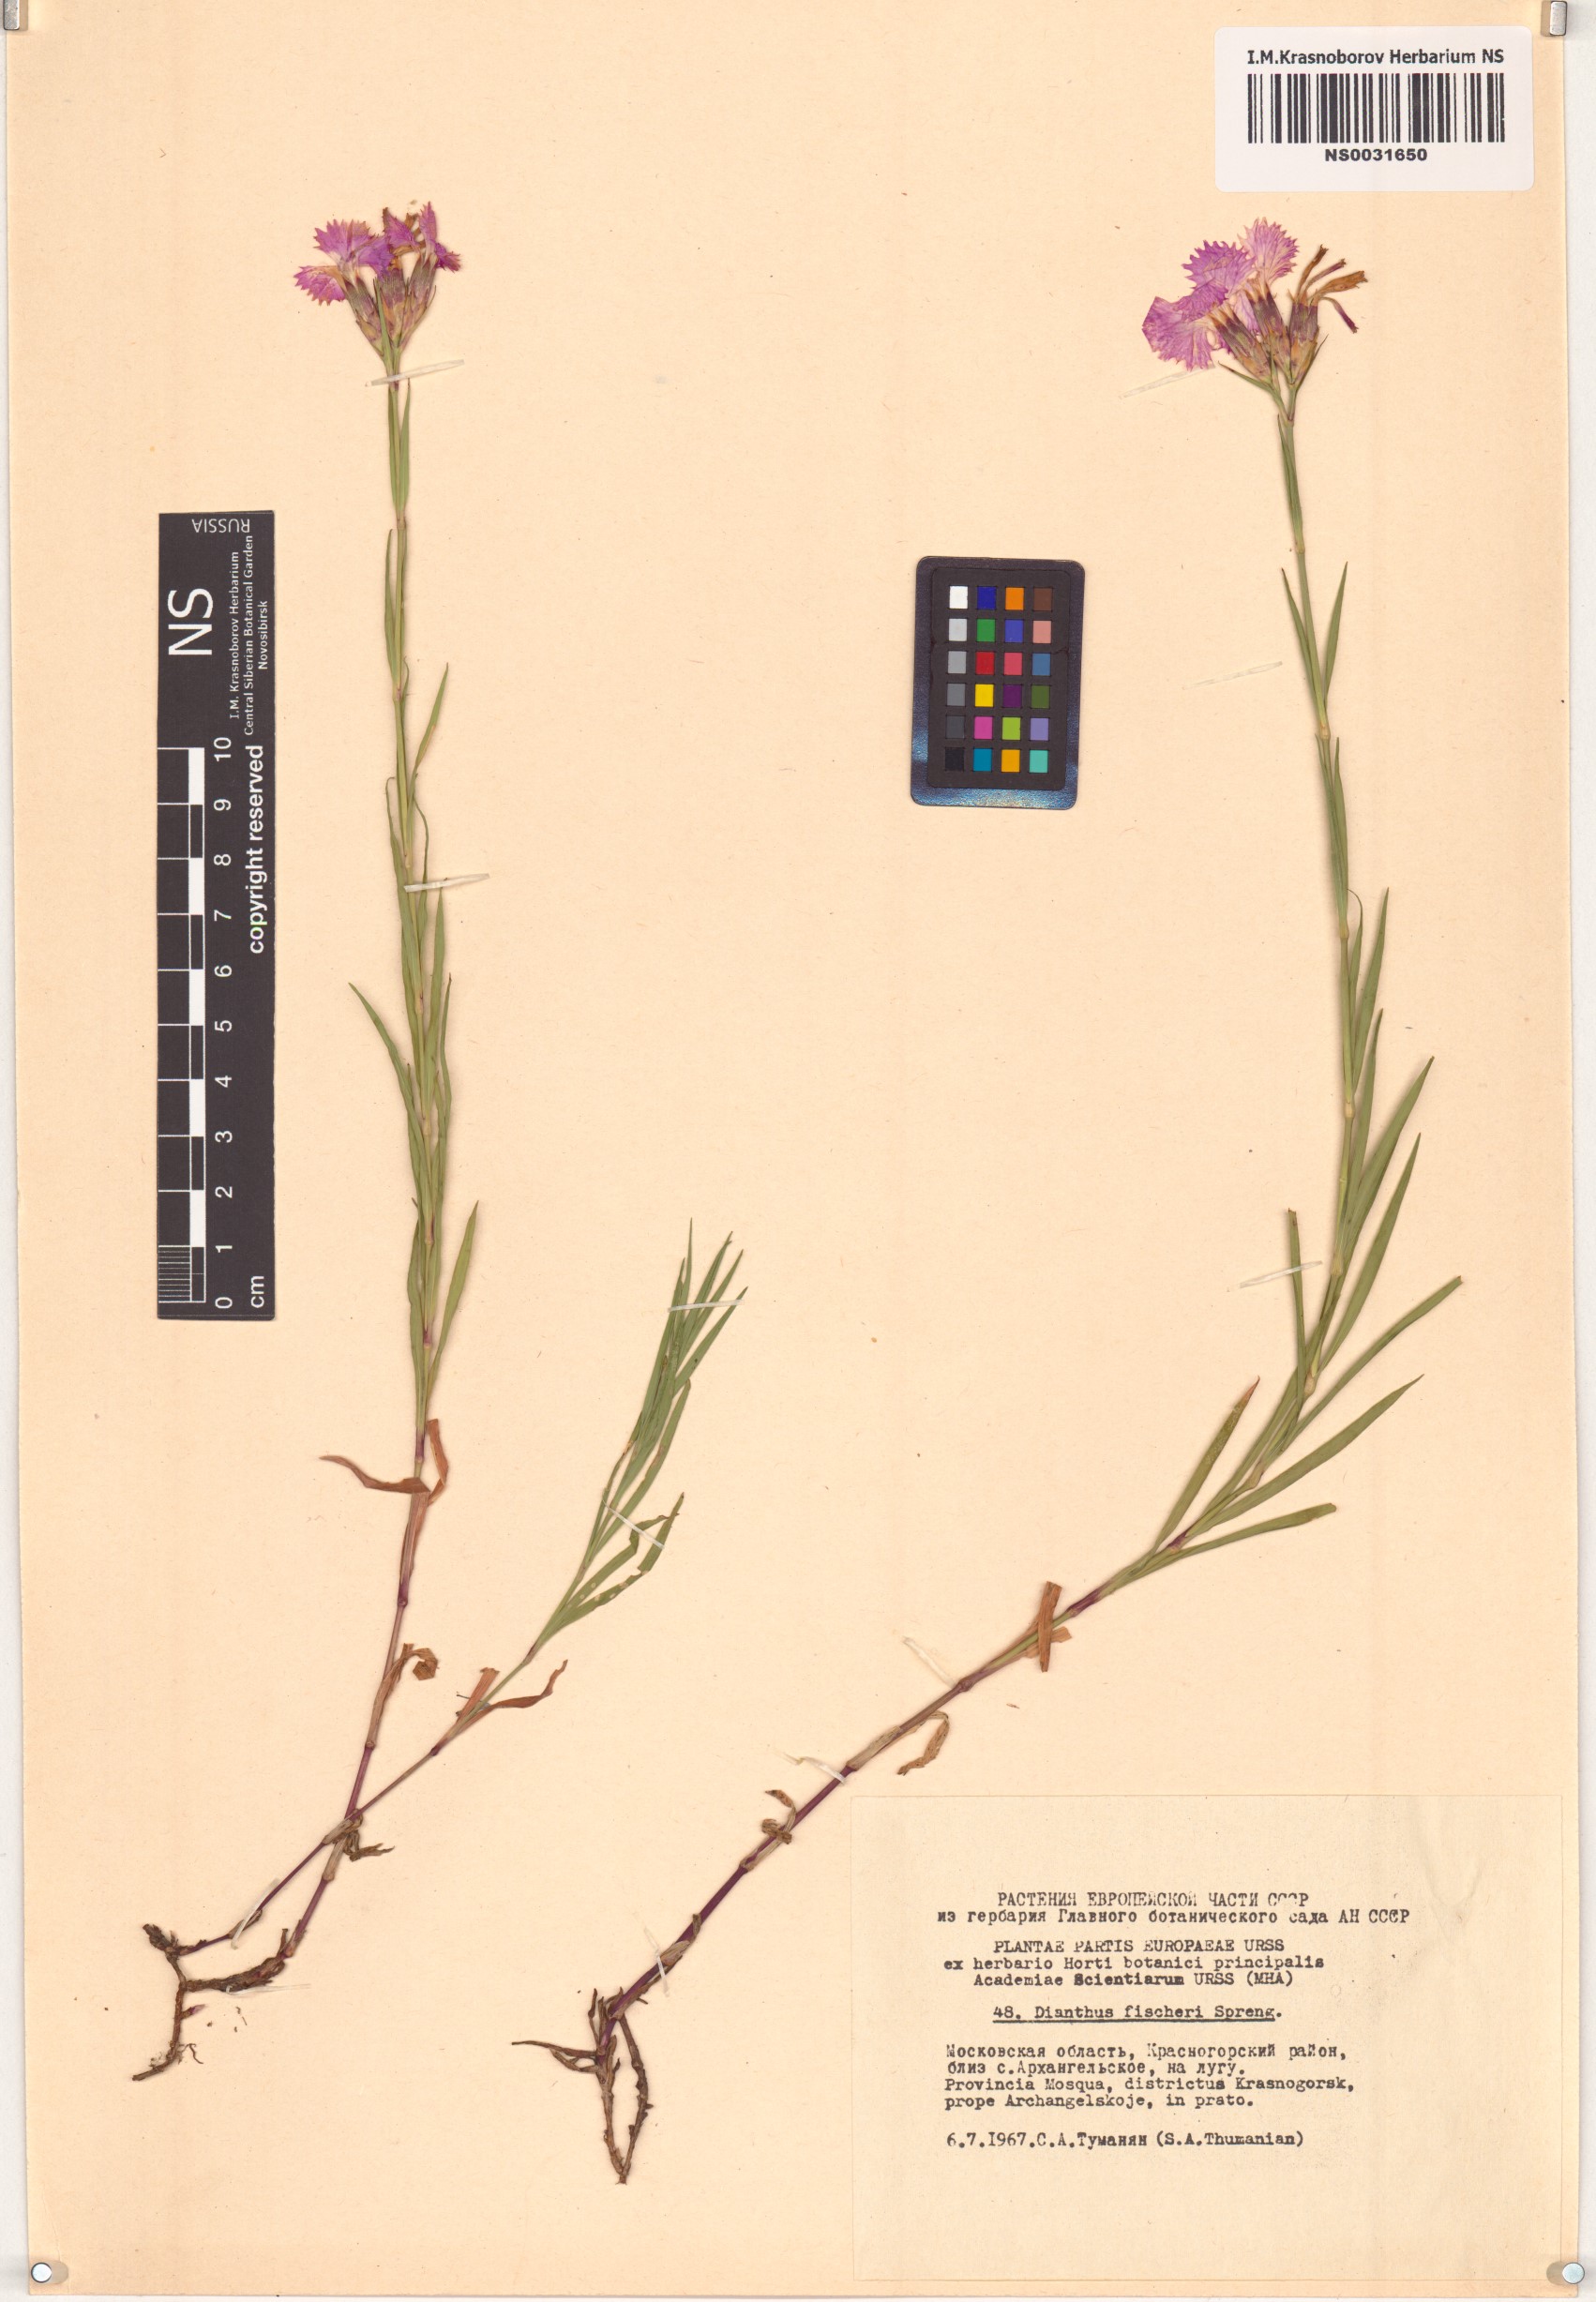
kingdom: Plantae
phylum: Tracheophyta
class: Magnoliopsida
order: Caryophyllales
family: Caryophyllaceae
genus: Dianthus
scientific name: Dianthus chinensis
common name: Rainbow pink
